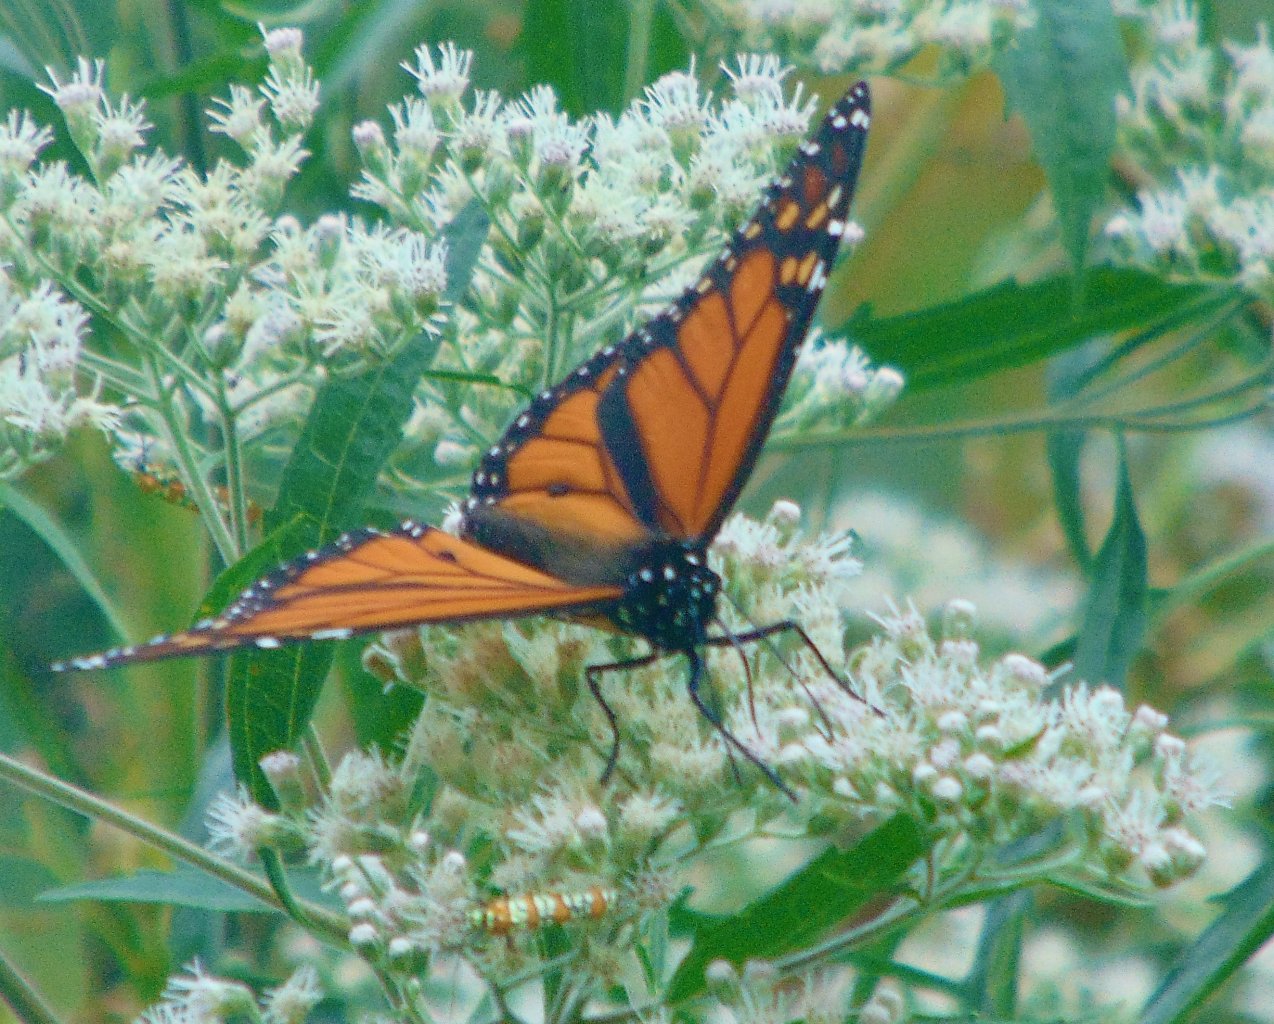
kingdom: Animalia
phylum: Arthropoda
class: Insecta
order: Lepidoptera
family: Nymphalidae
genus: Danaus
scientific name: Danaus plexippus
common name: Monarch
